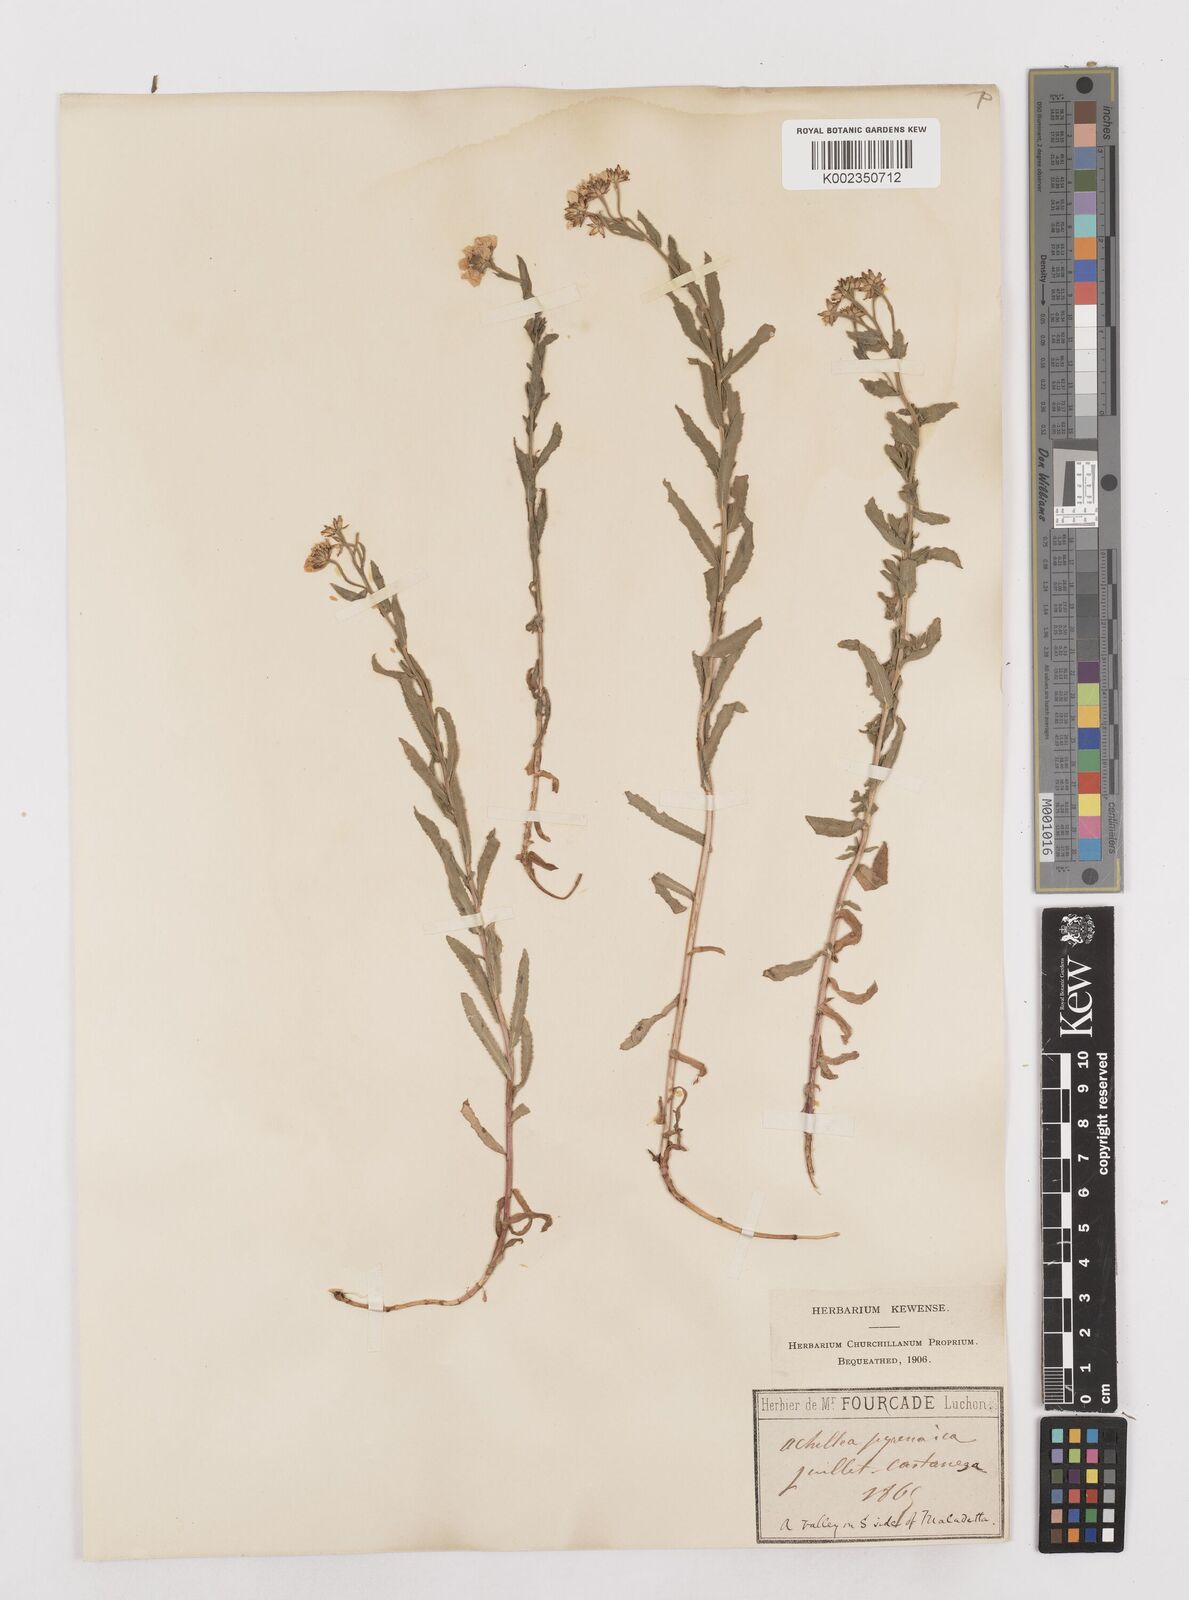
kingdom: Plantae
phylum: Tracheophyta
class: Magnoliopsida
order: Asterales
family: Asteraceae
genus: Achillea
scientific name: Achillea pyrenaica
